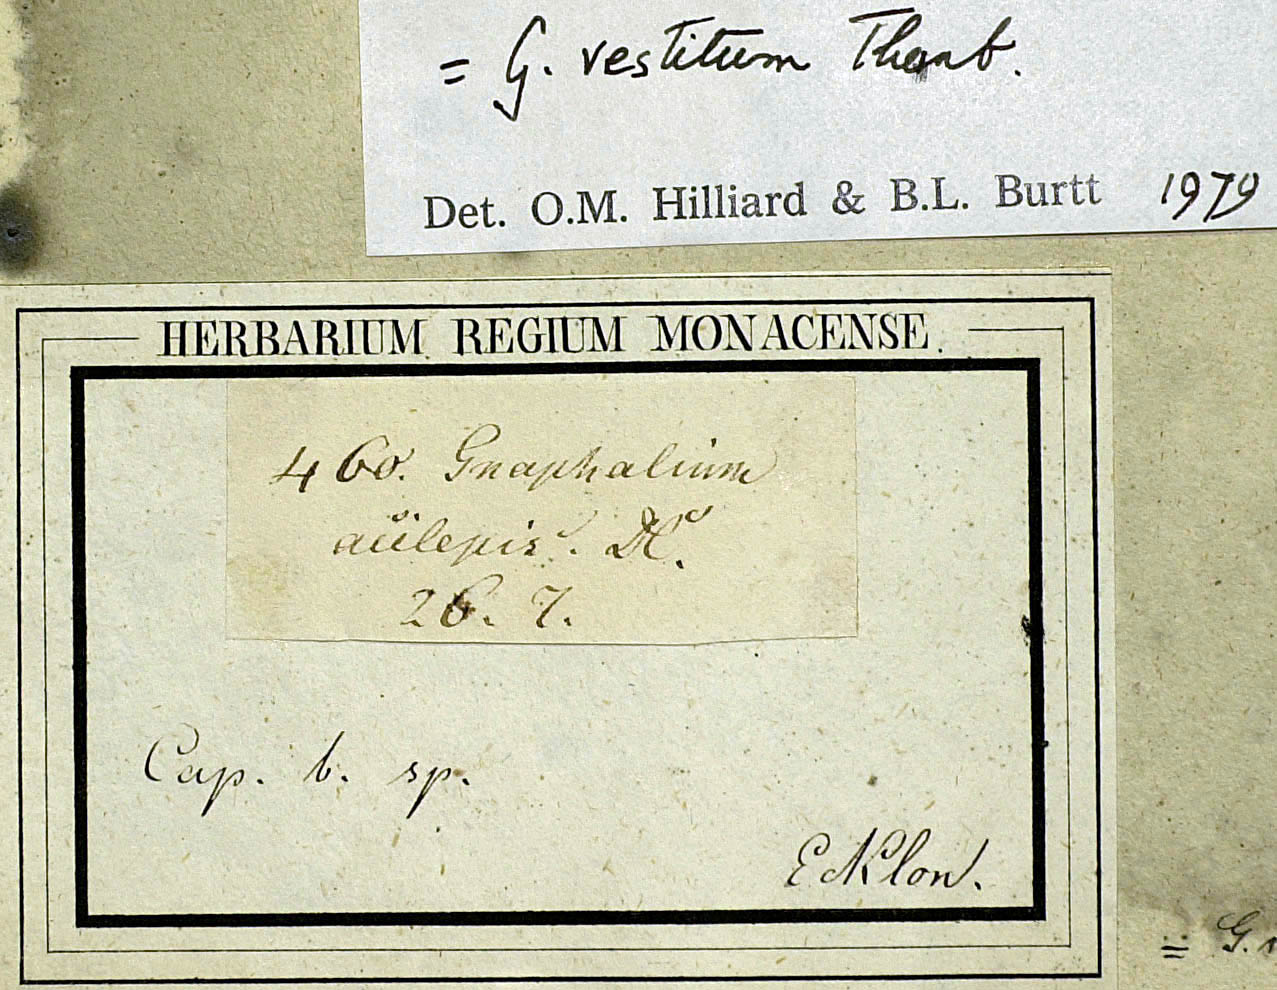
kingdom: Plantae
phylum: Tracheophyta
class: Magnoliopsida
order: Asterales
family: Asteraceae
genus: Ifloga
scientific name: Ifloga repens
